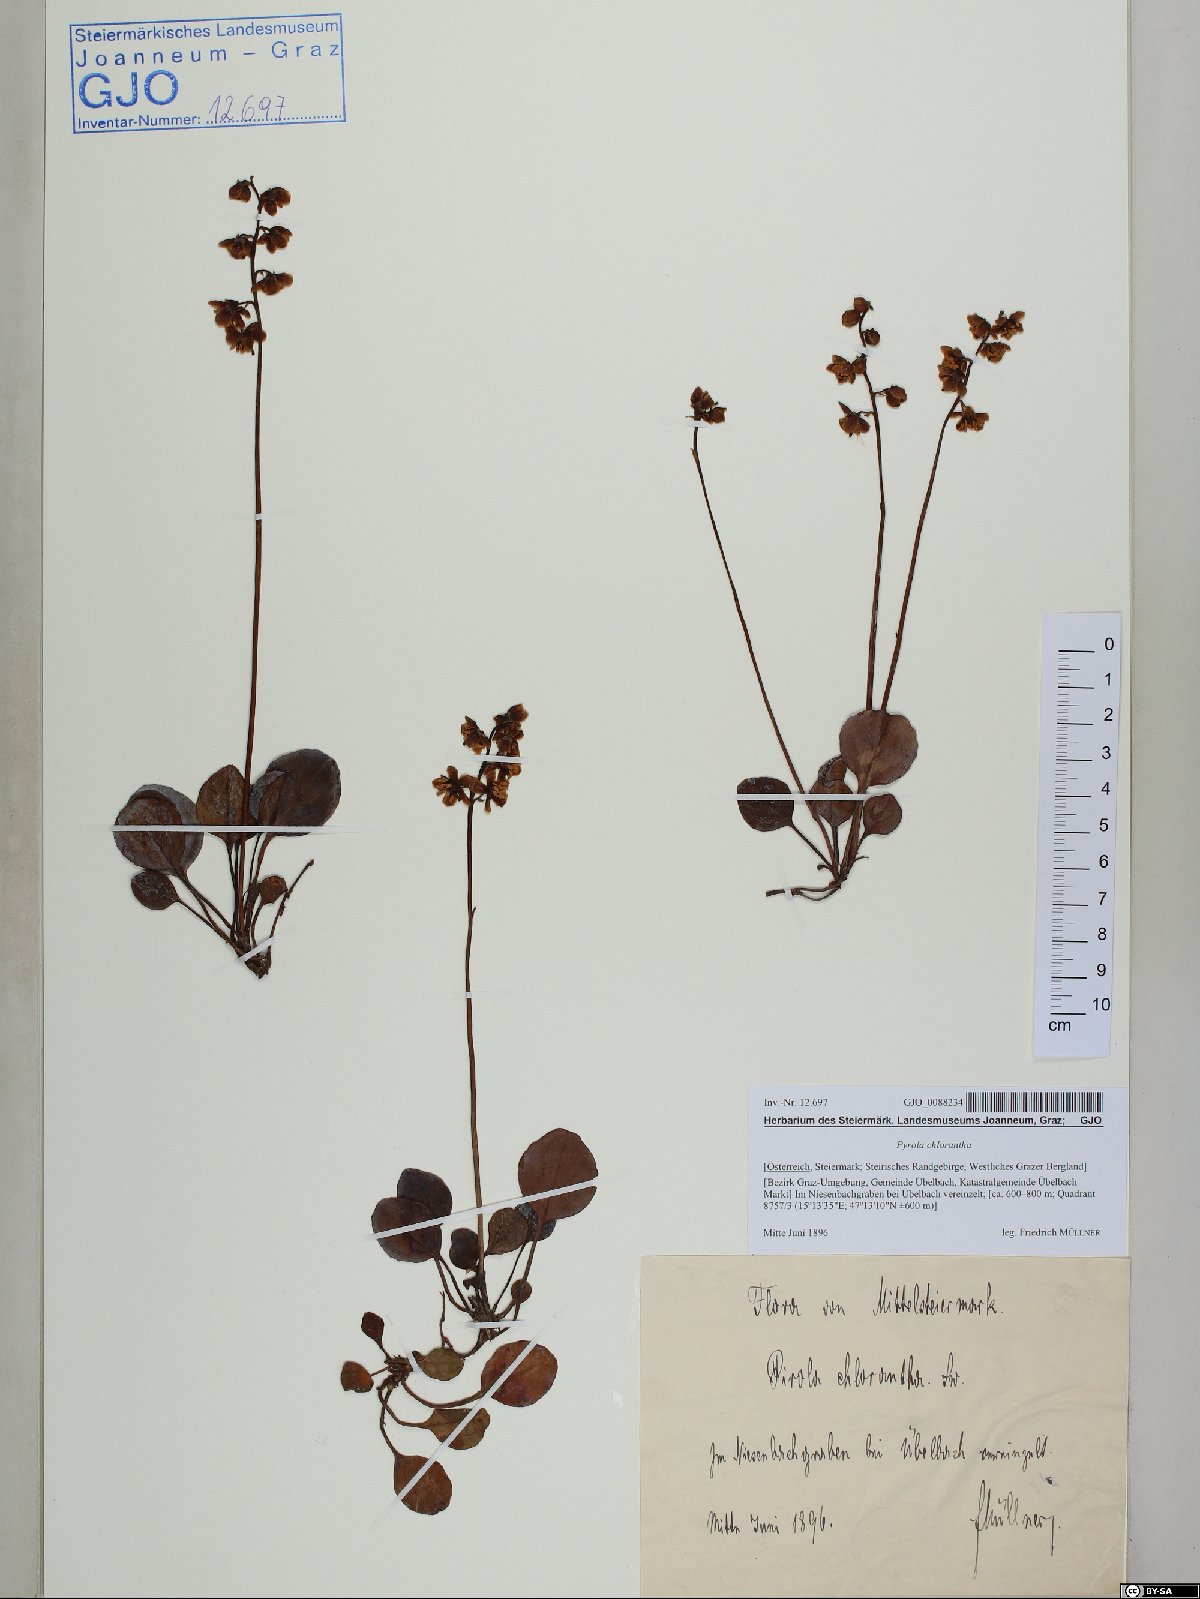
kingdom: Plantae
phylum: Tracheophyta
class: Magnoliopsida
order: Ericales
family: Ericaceae
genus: Pyrola
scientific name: Pyrola chlorantha
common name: Green wintergreen
